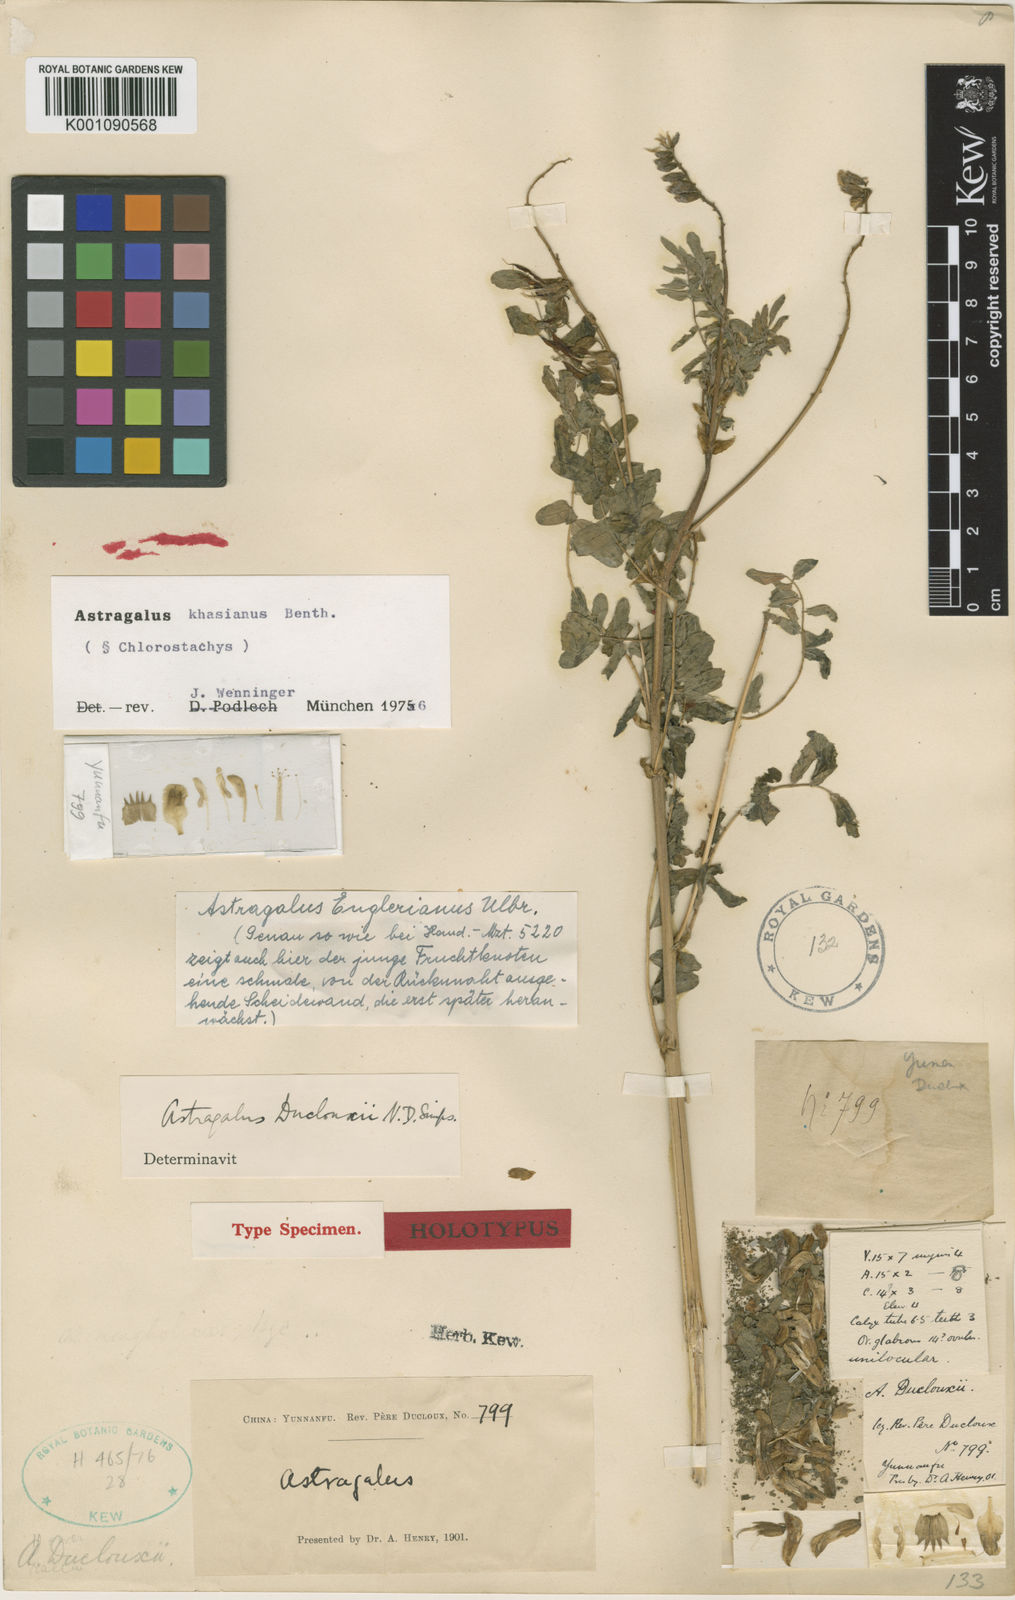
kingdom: Plantae
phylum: Tracheophyta
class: Magnoliopsida
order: Fabales
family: Fabaceae
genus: Astragalus
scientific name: Astragalus
